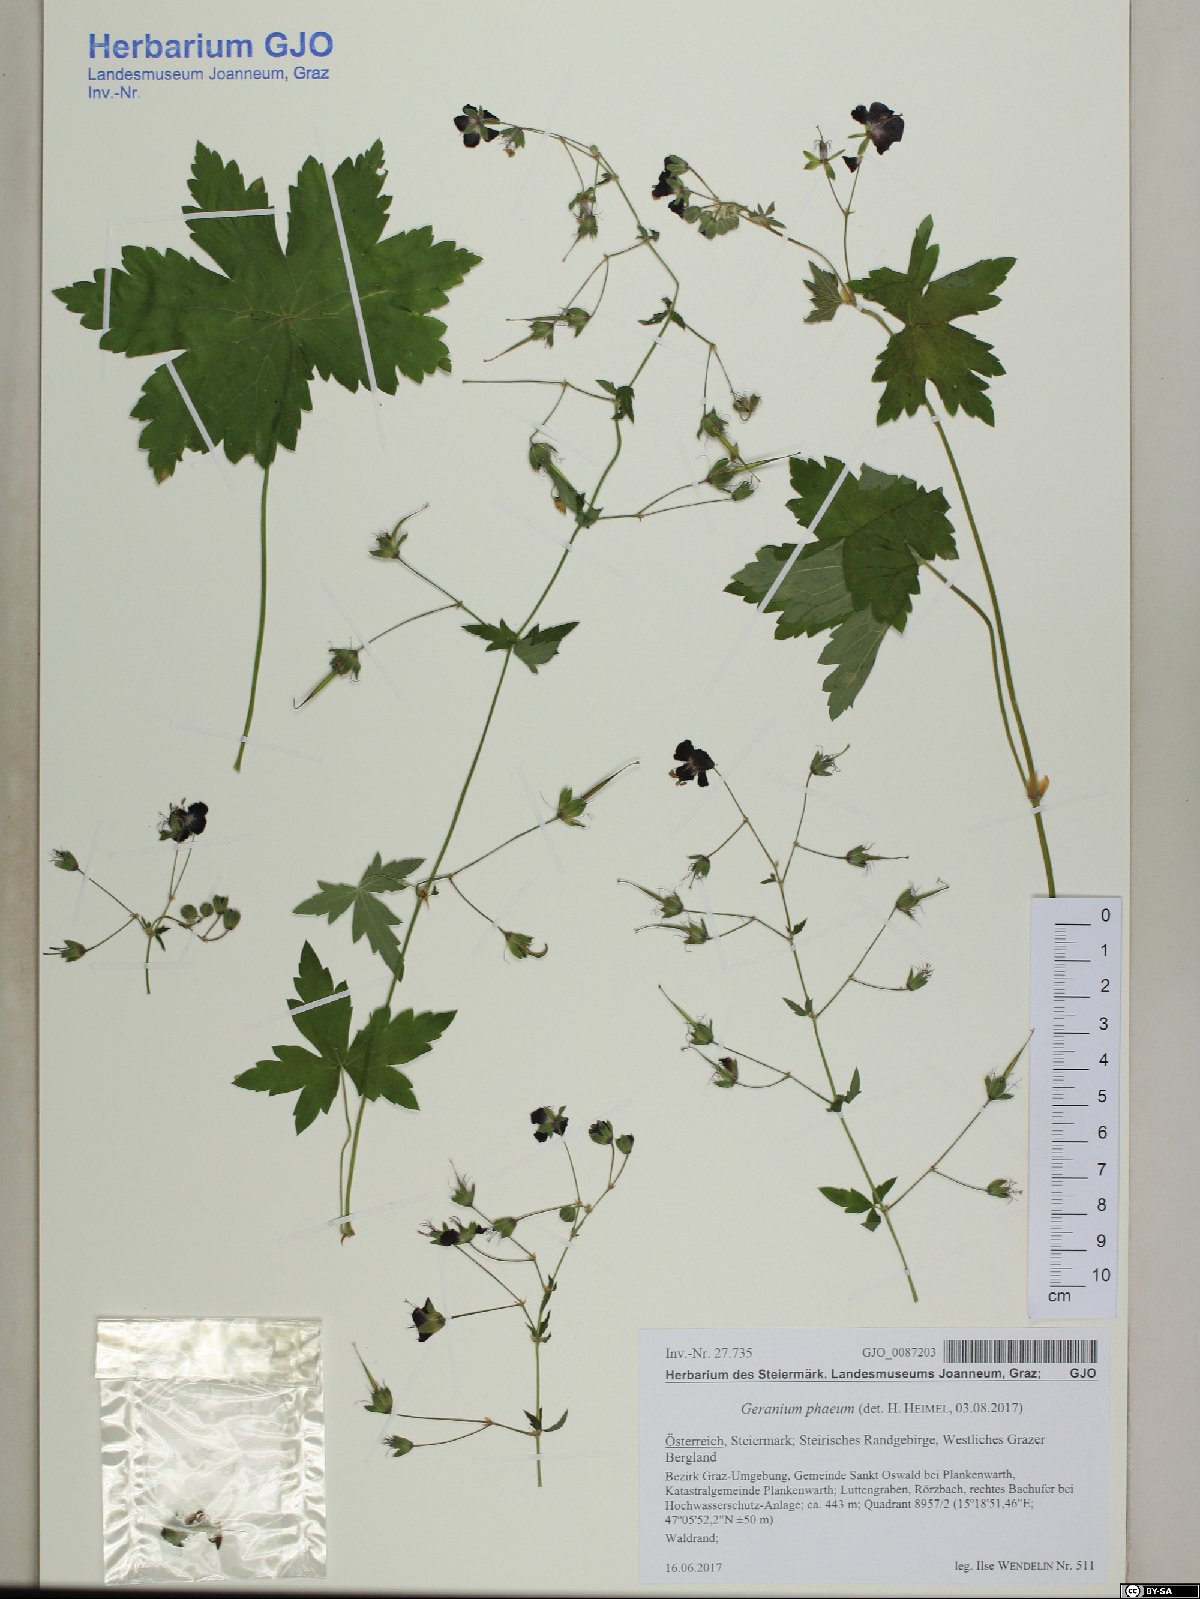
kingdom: Plantae
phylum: Tracheophyta
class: Magnoliopsida
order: Geraniales
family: Geraniaceae
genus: Geranium
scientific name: Geranium phaeum
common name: Dusky crane's-bill
